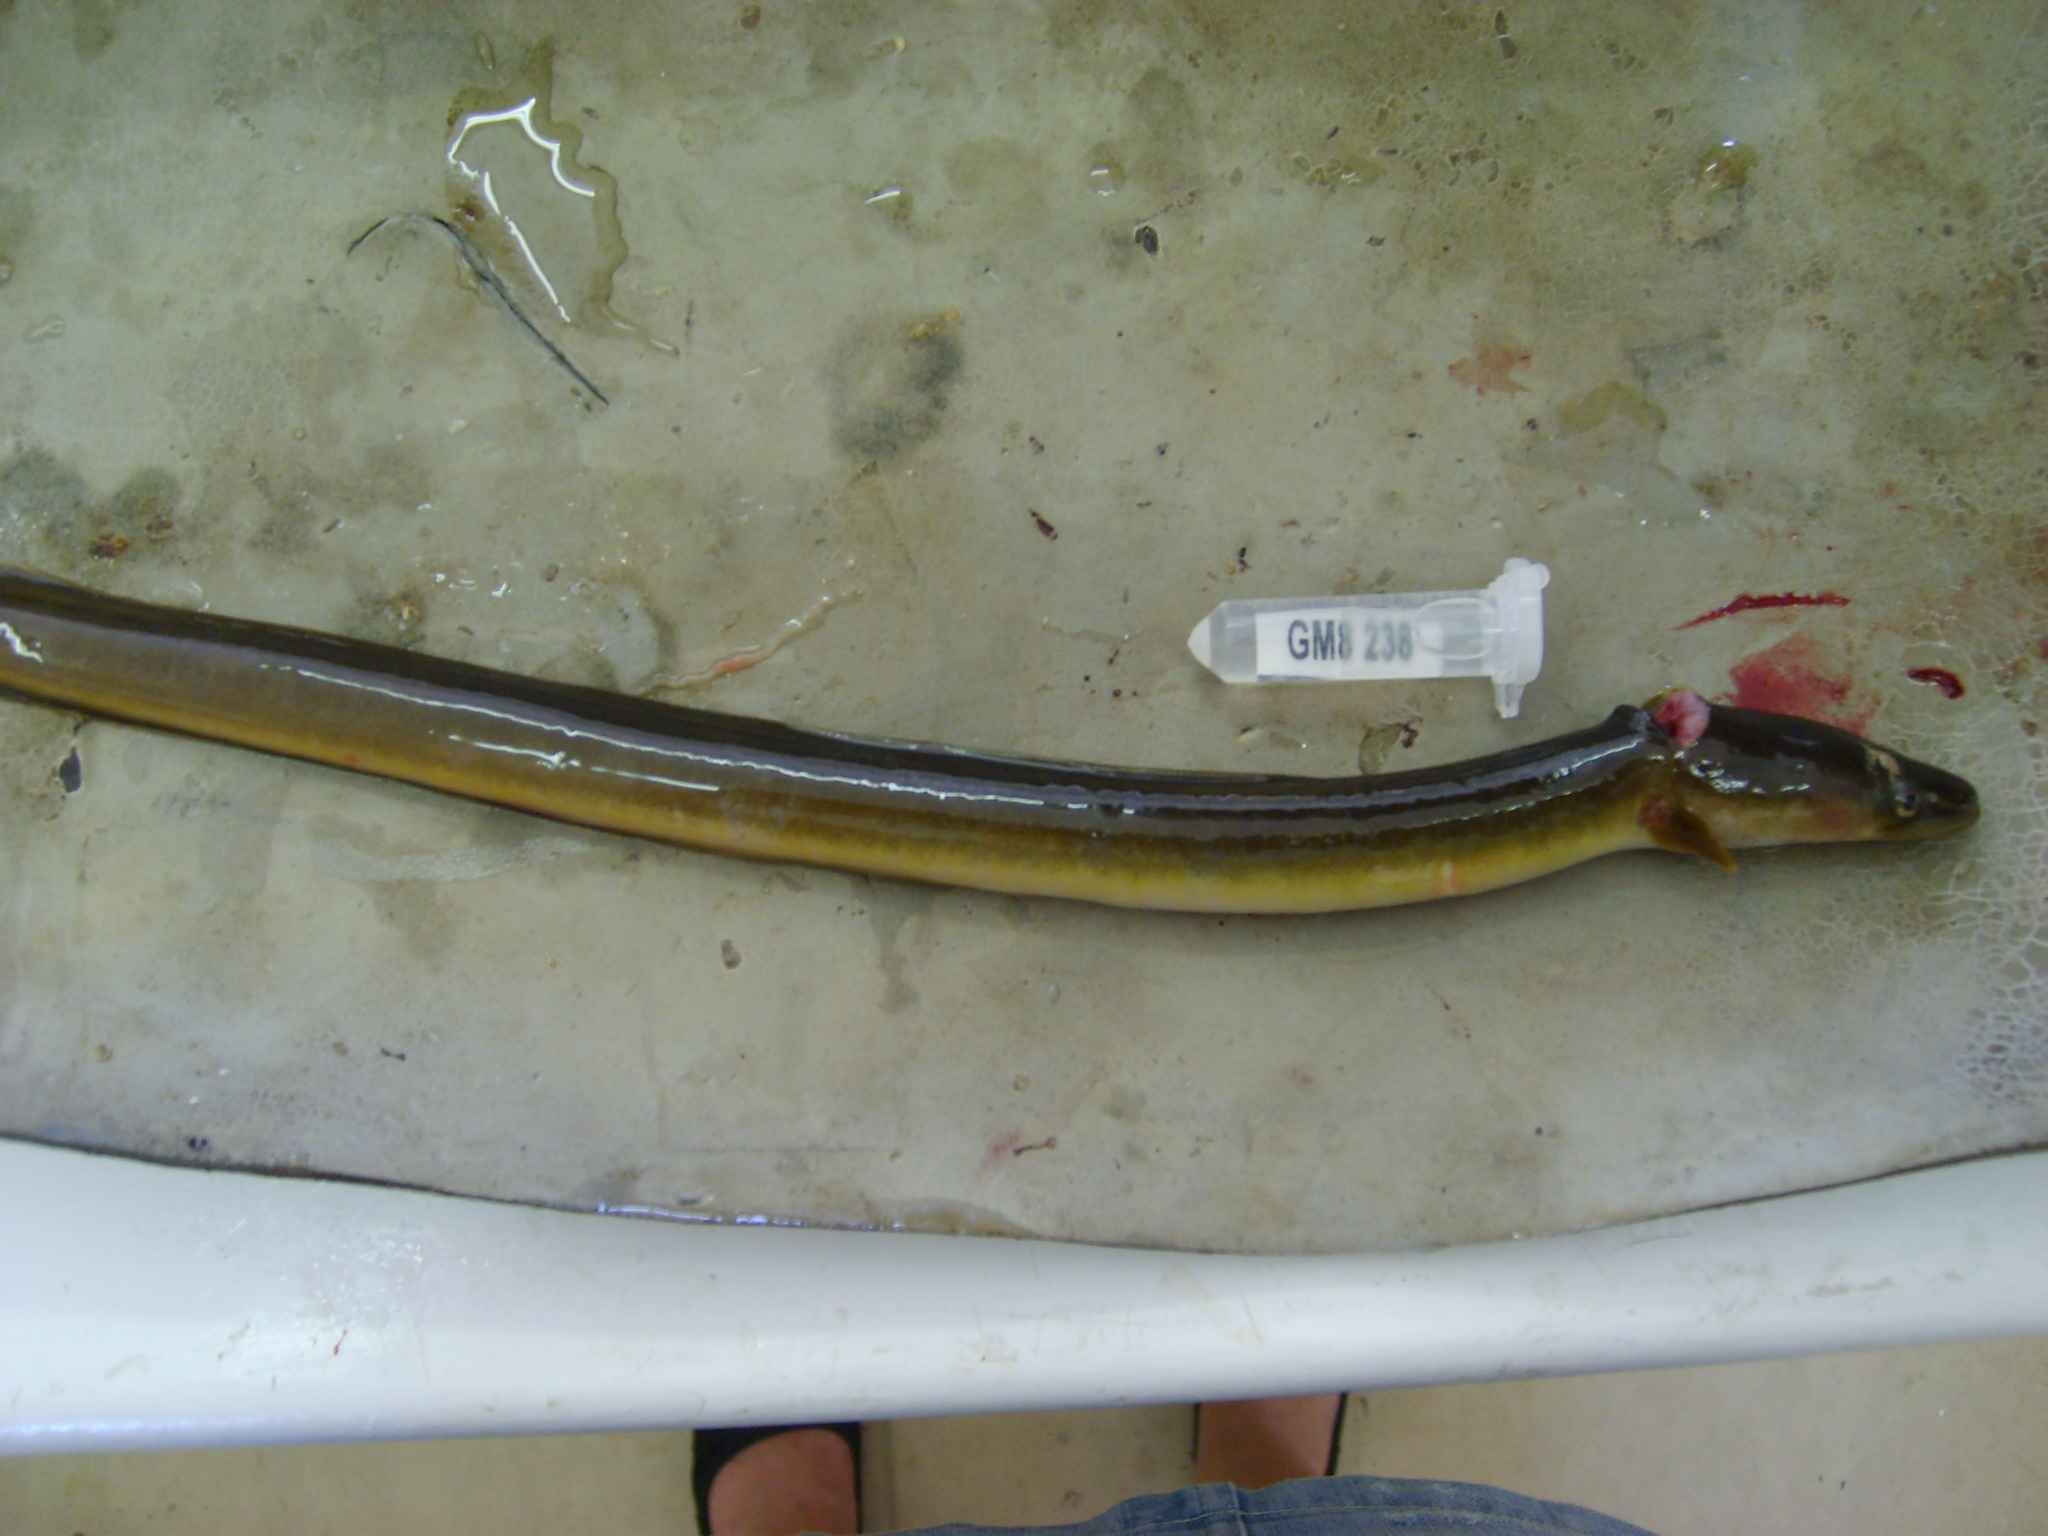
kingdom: Animalia
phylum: Chordata
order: Anguilliformes
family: Anguillidae
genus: Anguilla
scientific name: Anguilla mossambica
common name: African longfin eel
